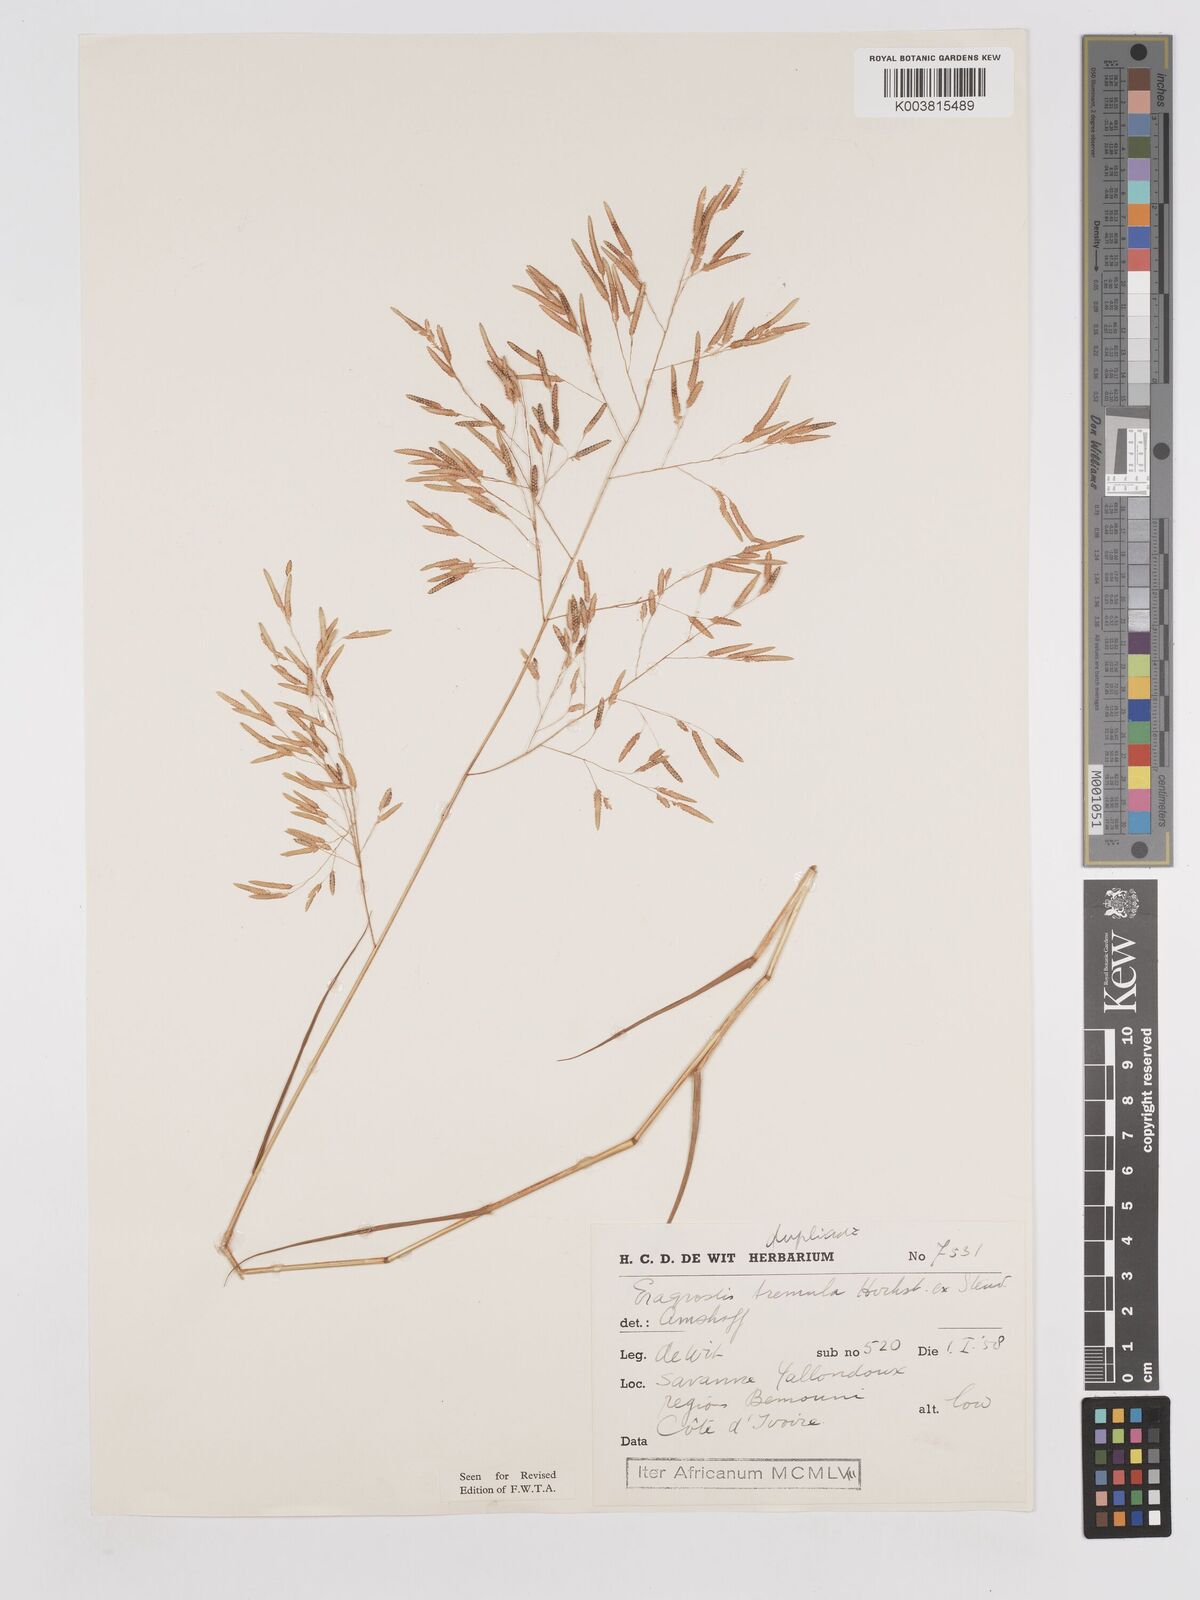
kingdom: Plantae
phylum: Tracheophyta
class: Liliopsida
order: Poales
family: Poaceae
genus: Eragrostis
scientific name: Eragrostis tremula
